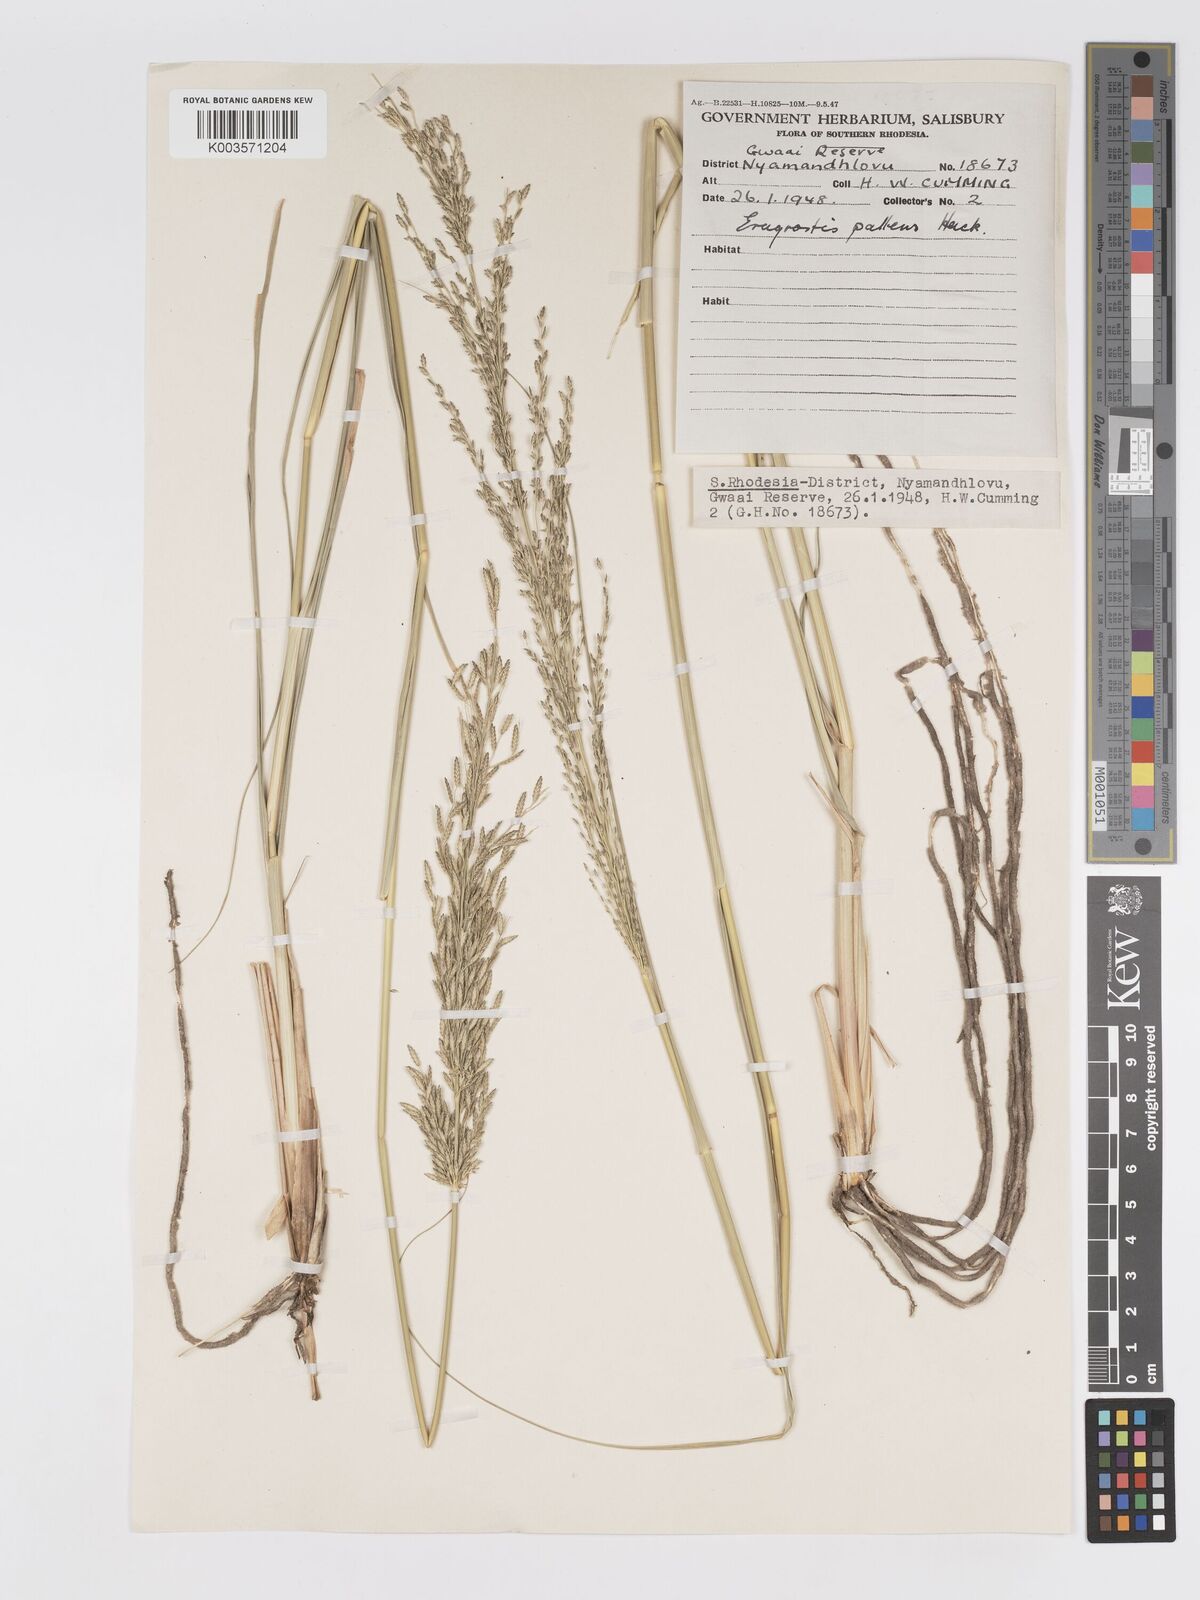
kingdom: Plantae
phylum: Tracheophyta
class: Liliopsida
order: Poales
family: Poaceae
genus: Eragrostis
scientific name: Eragrostis pallens
